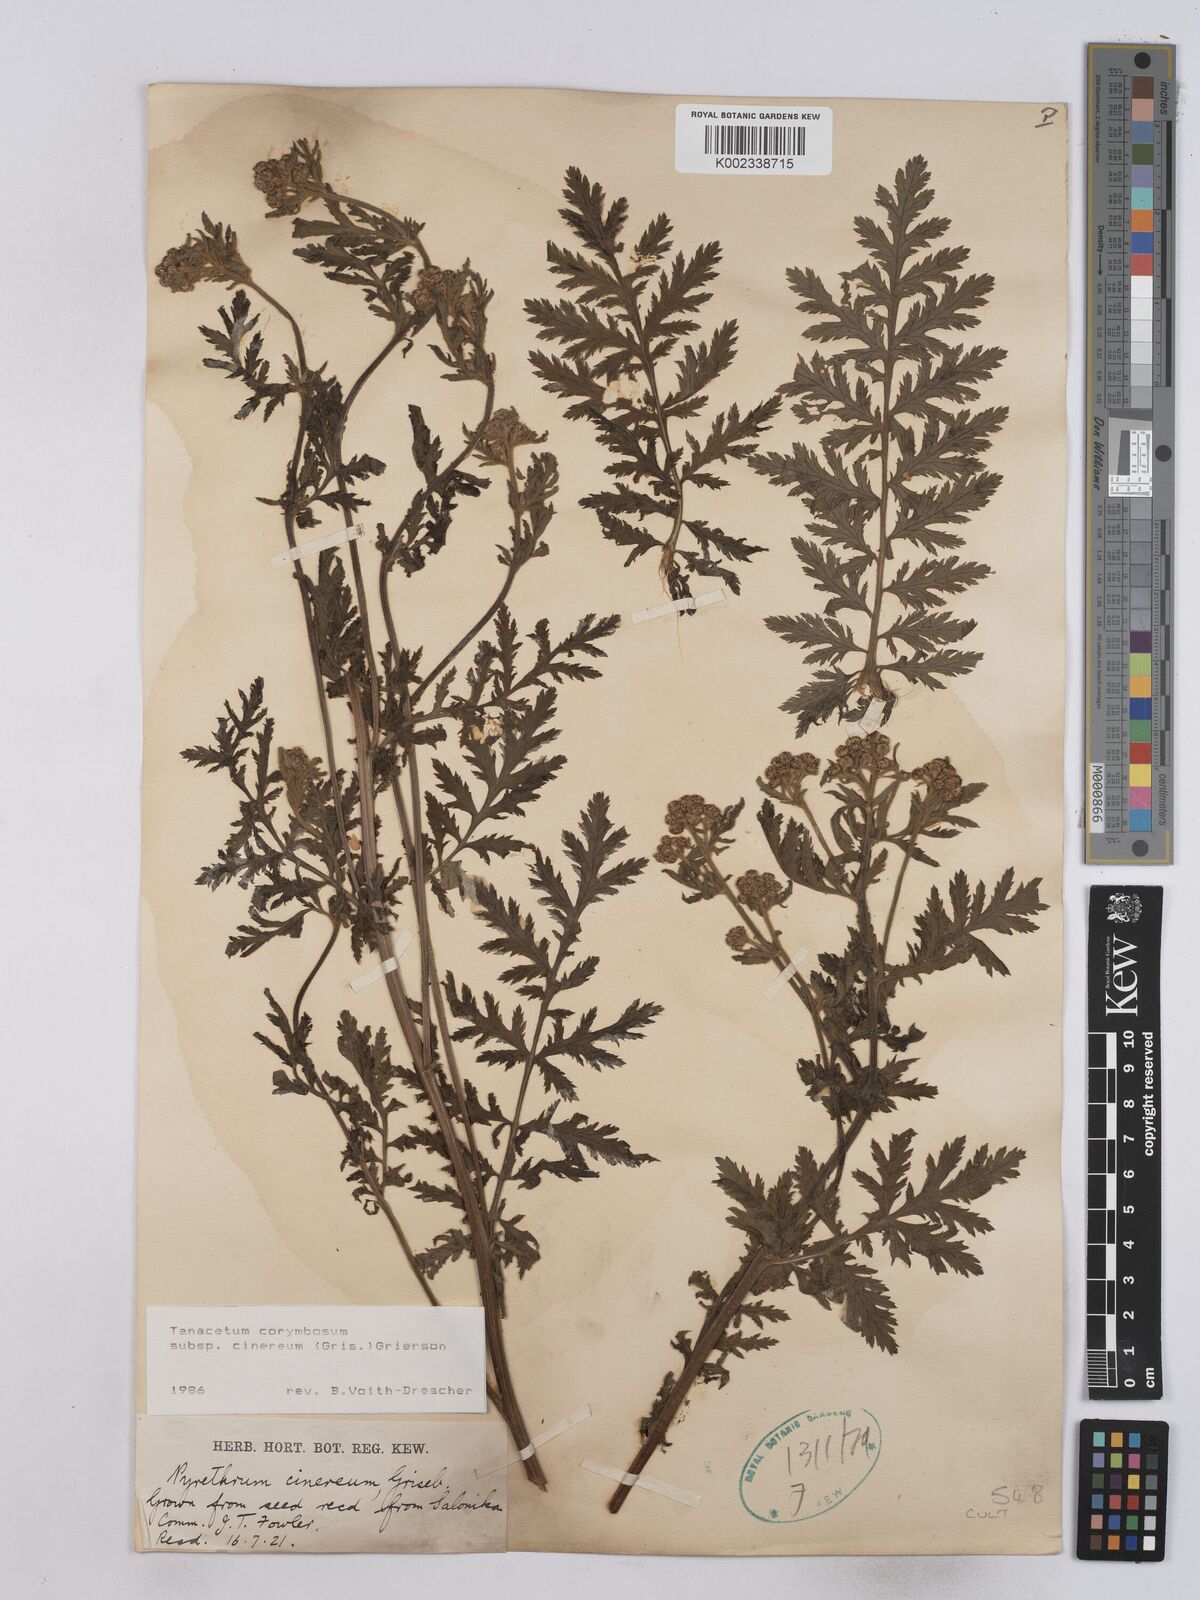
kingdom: Plantae
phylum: Tracheophyta
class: Magnoliopsida
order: Asterales
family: Asteraceae
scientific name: Asteraceae
